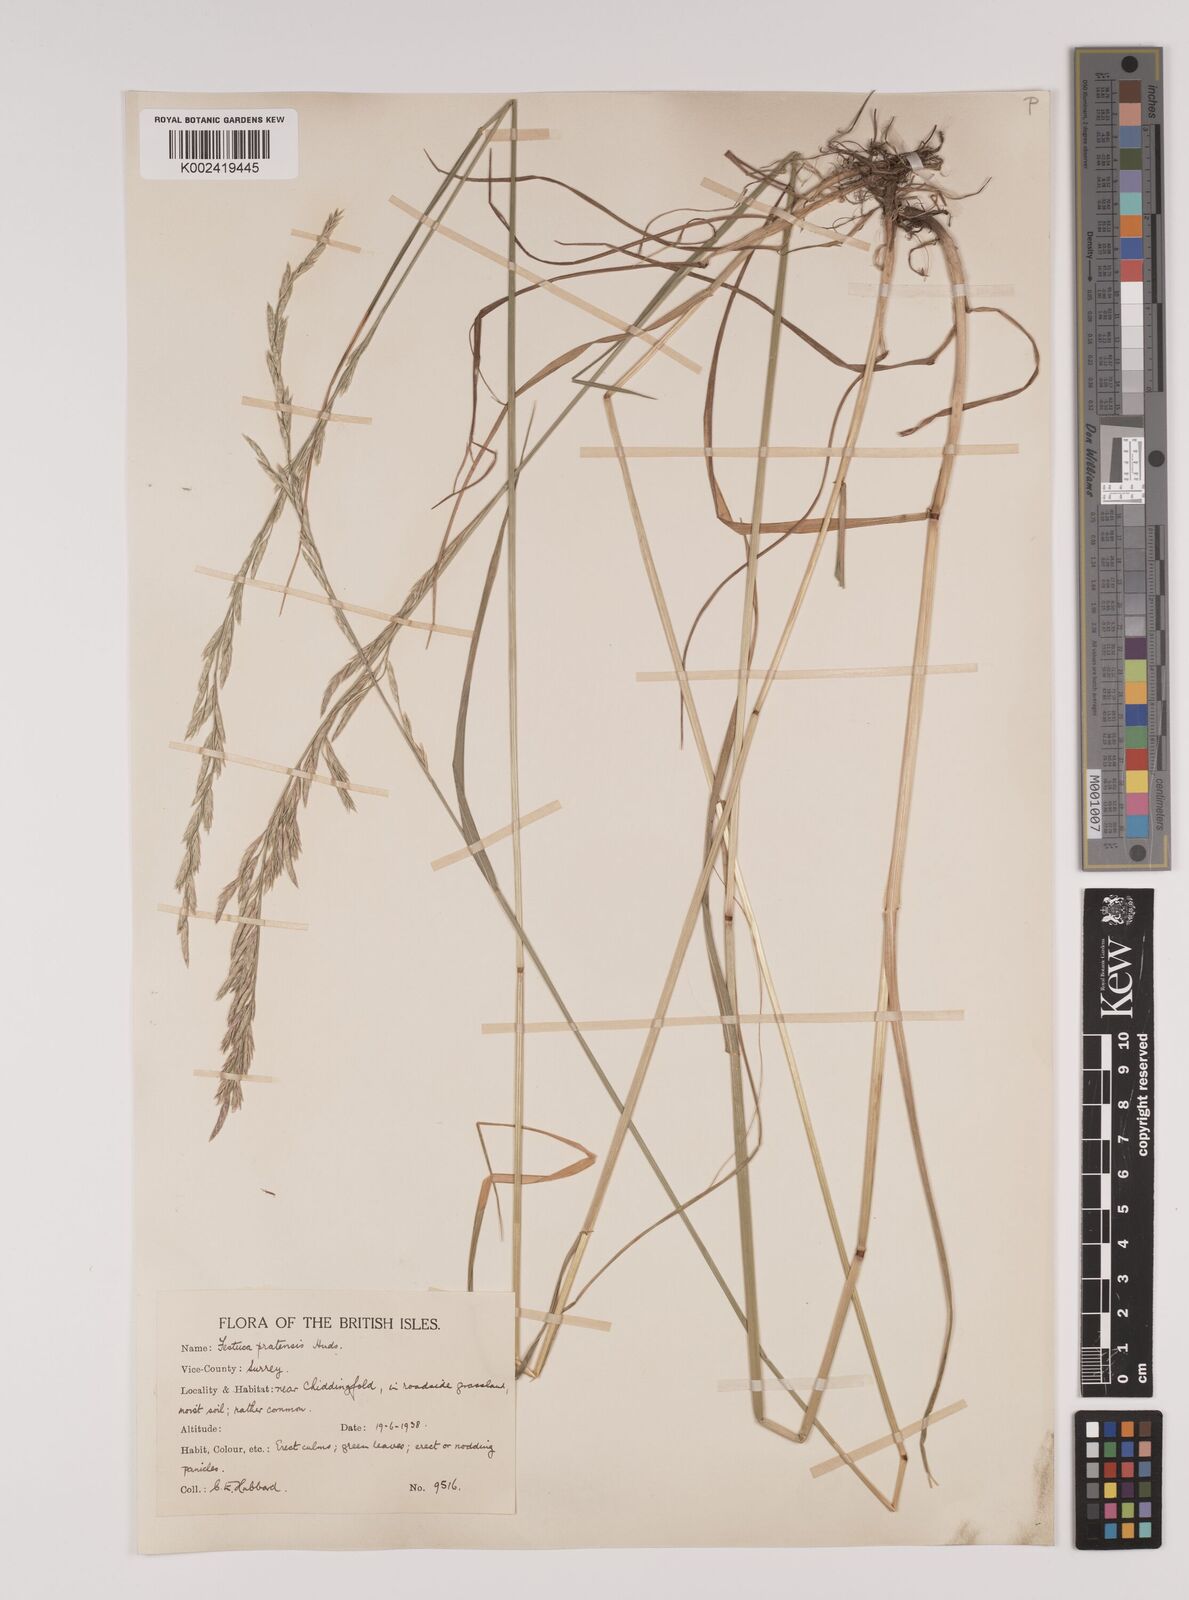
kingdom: Plantae
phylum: Tracheophyta
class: Liliopsida
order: Poales
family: Poaceae
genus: Lolium
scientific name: Lolium pratense
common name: Dover grass
